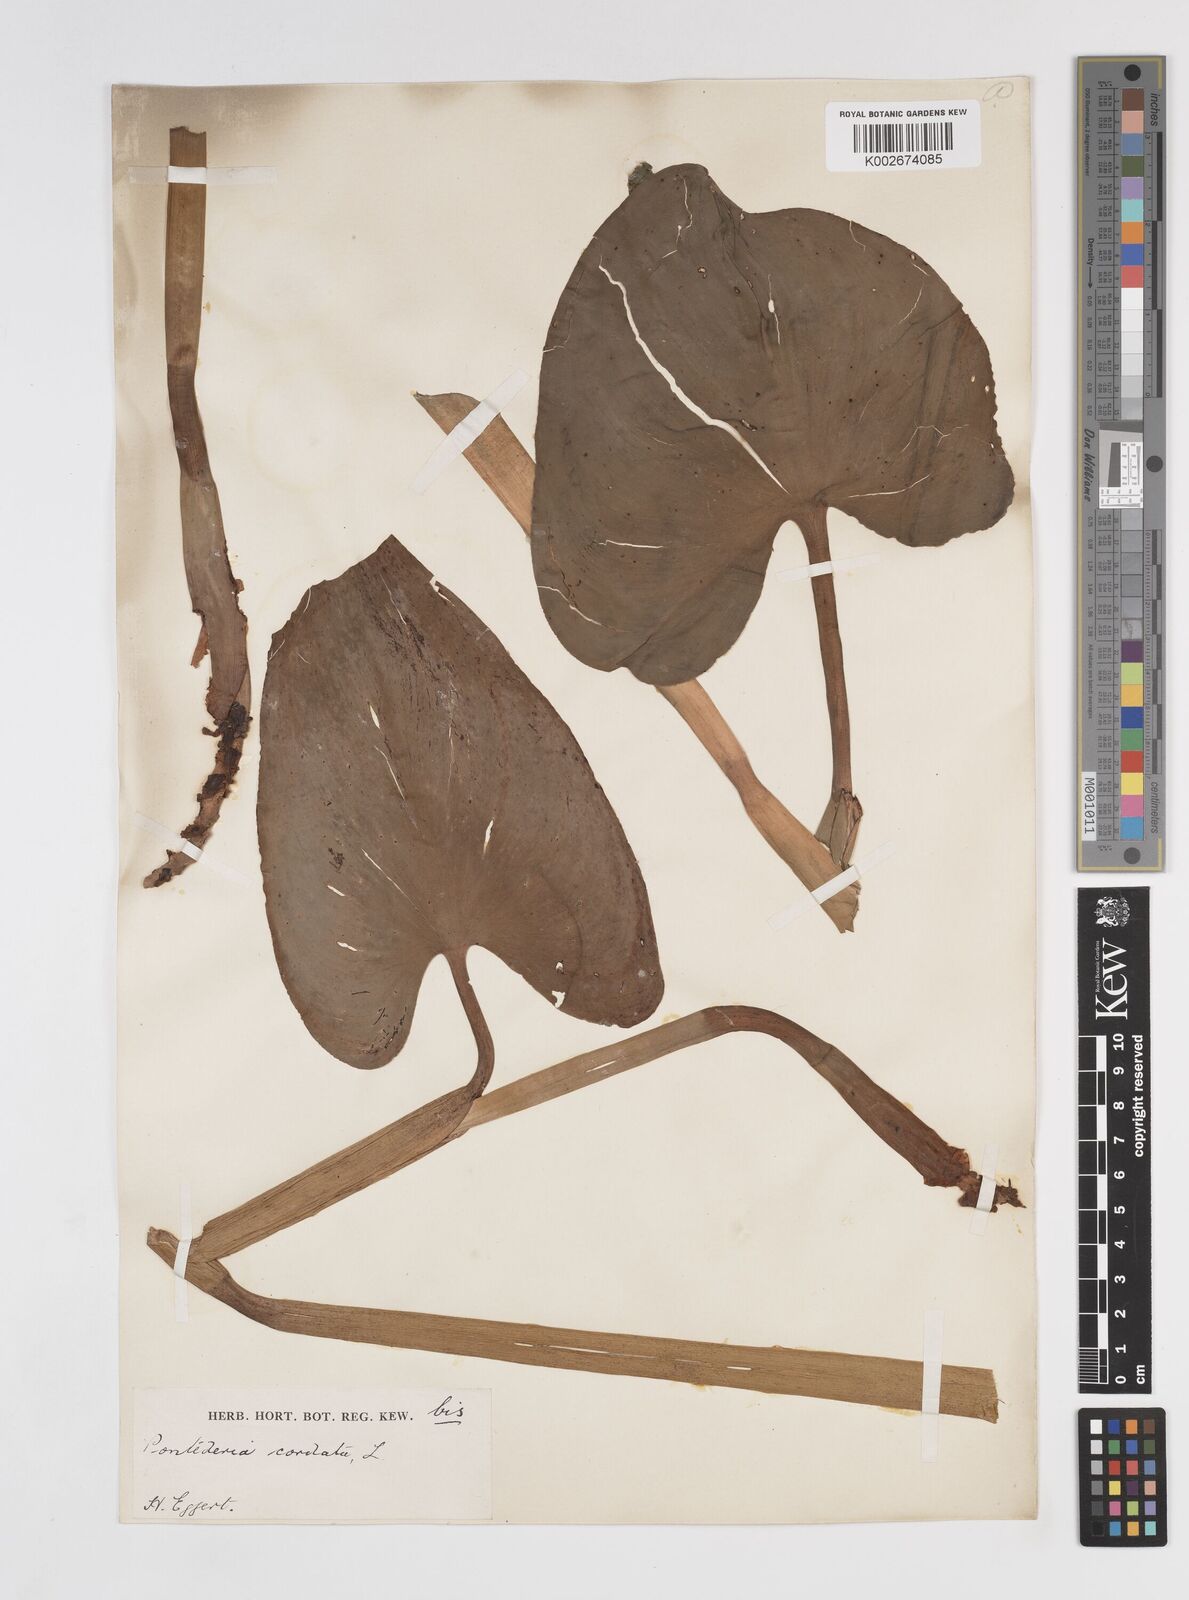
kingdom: Plantae
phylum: Tracheophyta
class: Liliopsida
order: Commelinales
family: Pontederiaceae
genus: Pontederia
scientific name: Pontederia cordata
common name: Pickerelweed
